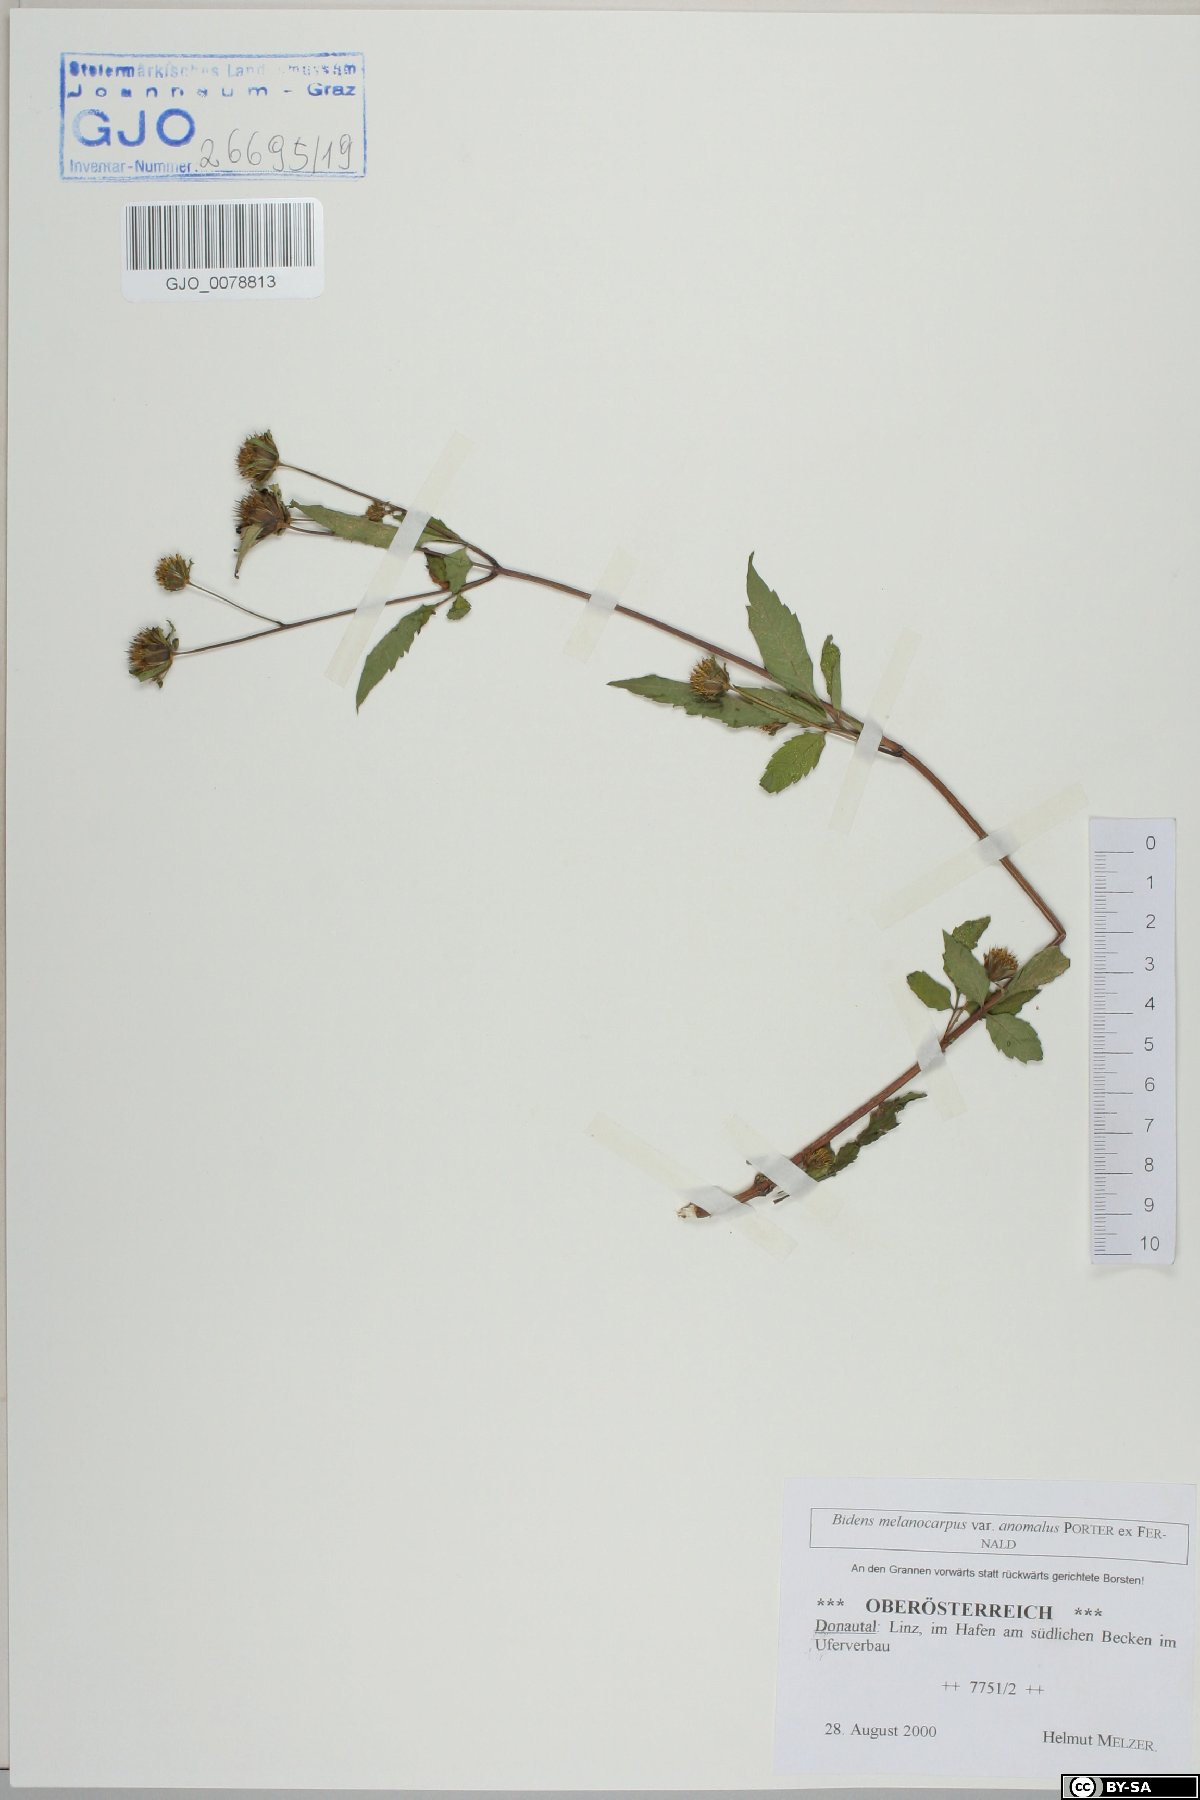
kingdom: Plantae
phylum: Tracheophyta
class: Magnoliopsida
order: Asterales
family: Asteraceae
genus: Bidens
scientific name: Bidens frondosa
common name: Beggarticks
